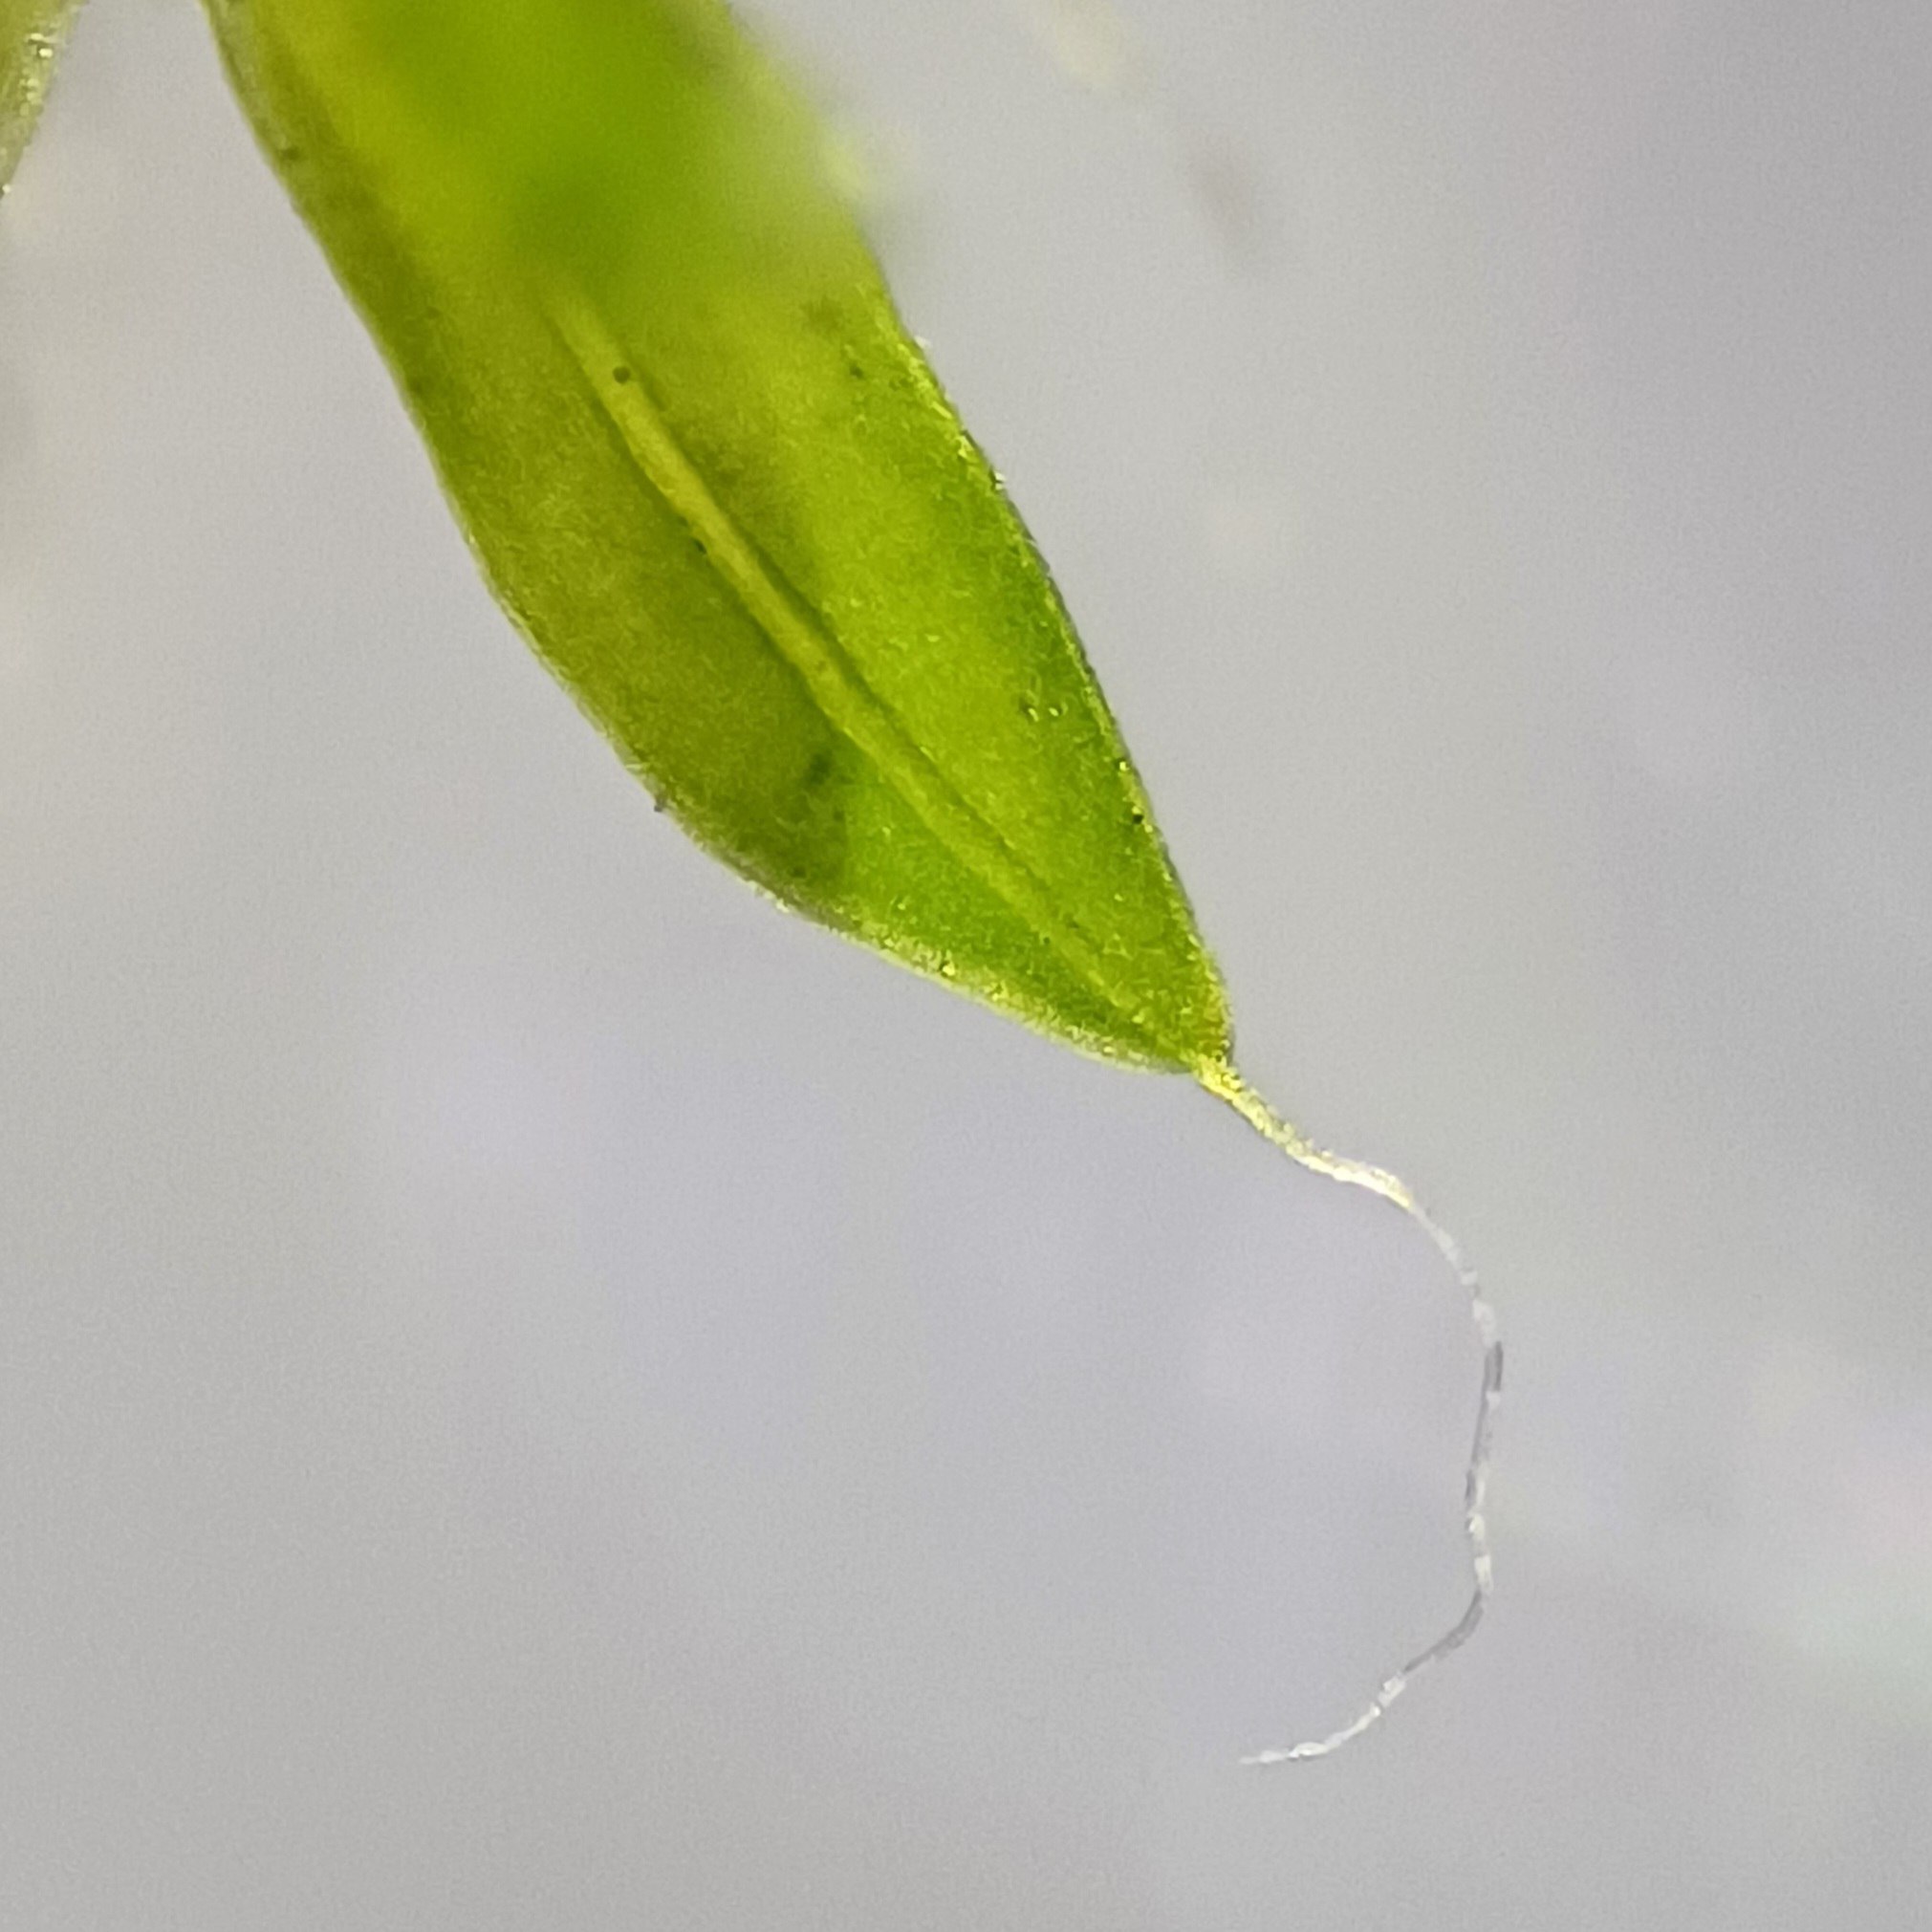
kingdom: Plantae
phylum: Bryophyta
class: Bryopsida
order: Pottiales
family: Pottiaceae
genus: Tortula
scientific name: Tortula muralis
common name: Mur-snotand
